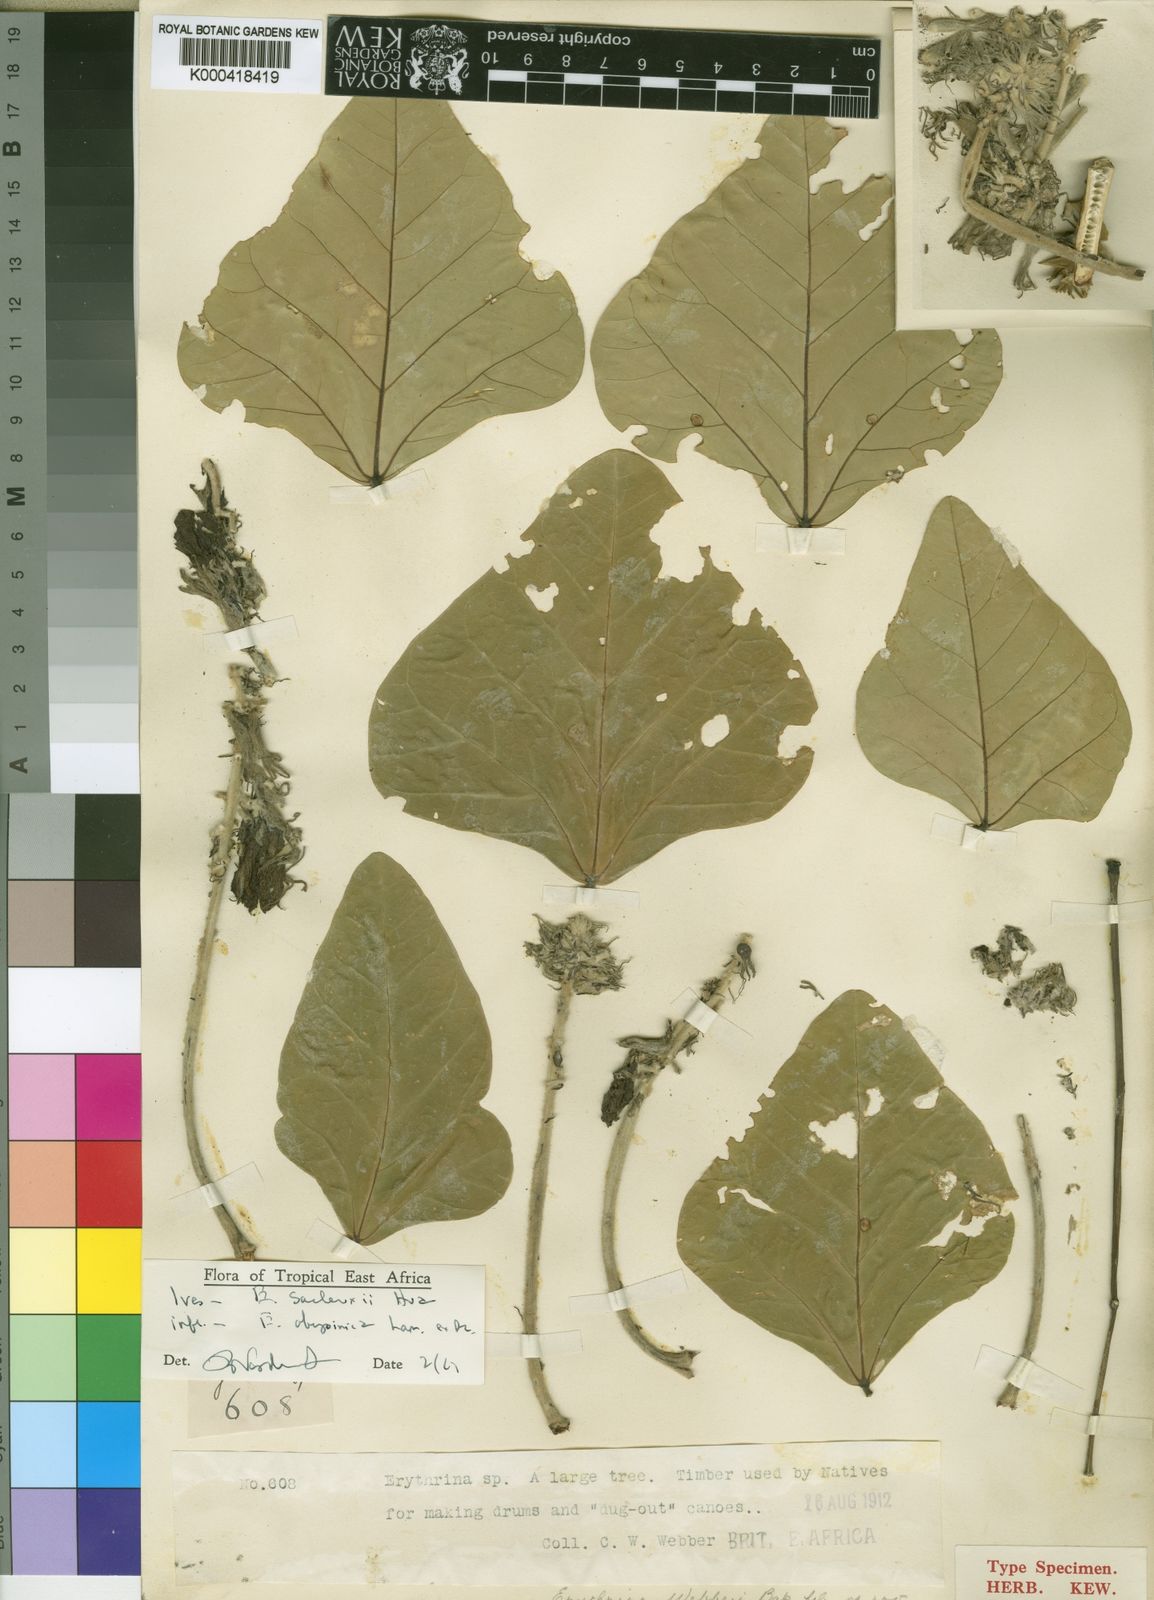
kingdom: Plantae
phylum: Tracheophyta
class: Magnoliopsida
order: Fabales
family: Fabaceae
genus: Erythrina
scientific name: Erythrina sacleuxii
